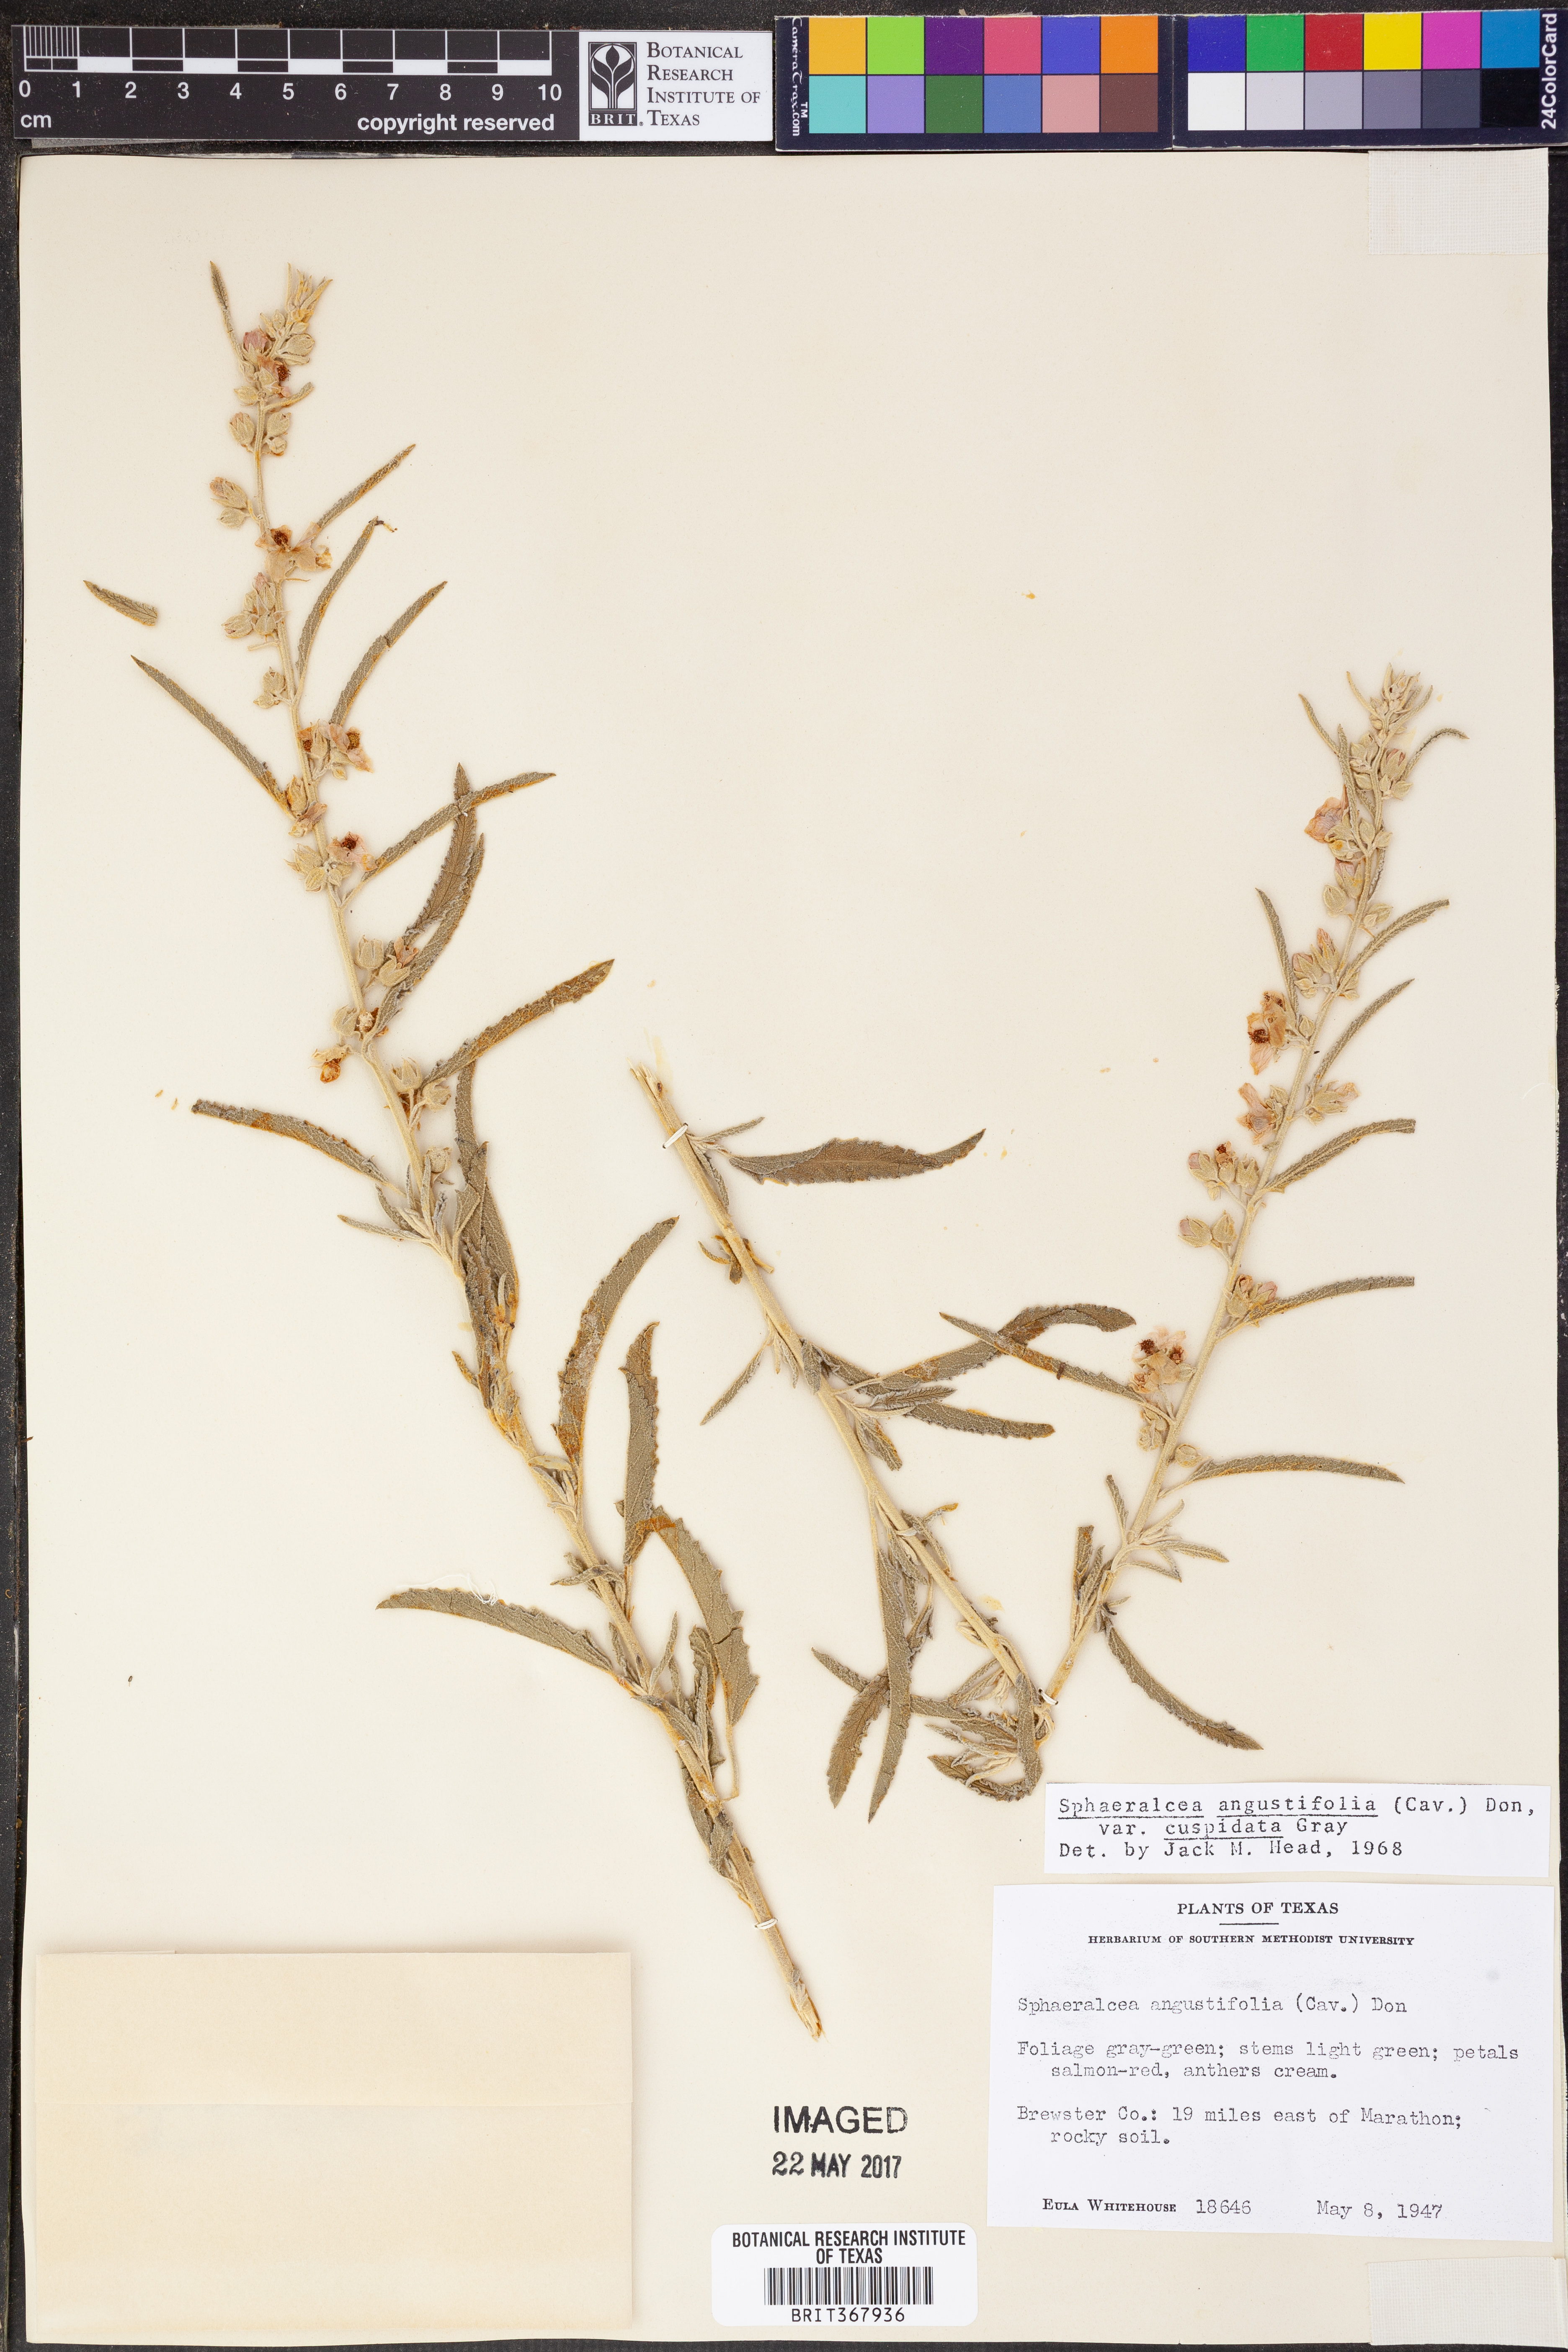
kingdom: Plantae
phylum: Tracheophyta
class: Magnoliopsida
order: Malvales
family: Malvaceae
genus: Sphaeralcea
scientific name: Sphaeralcea angustifolia
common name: Copper globe-mallow
